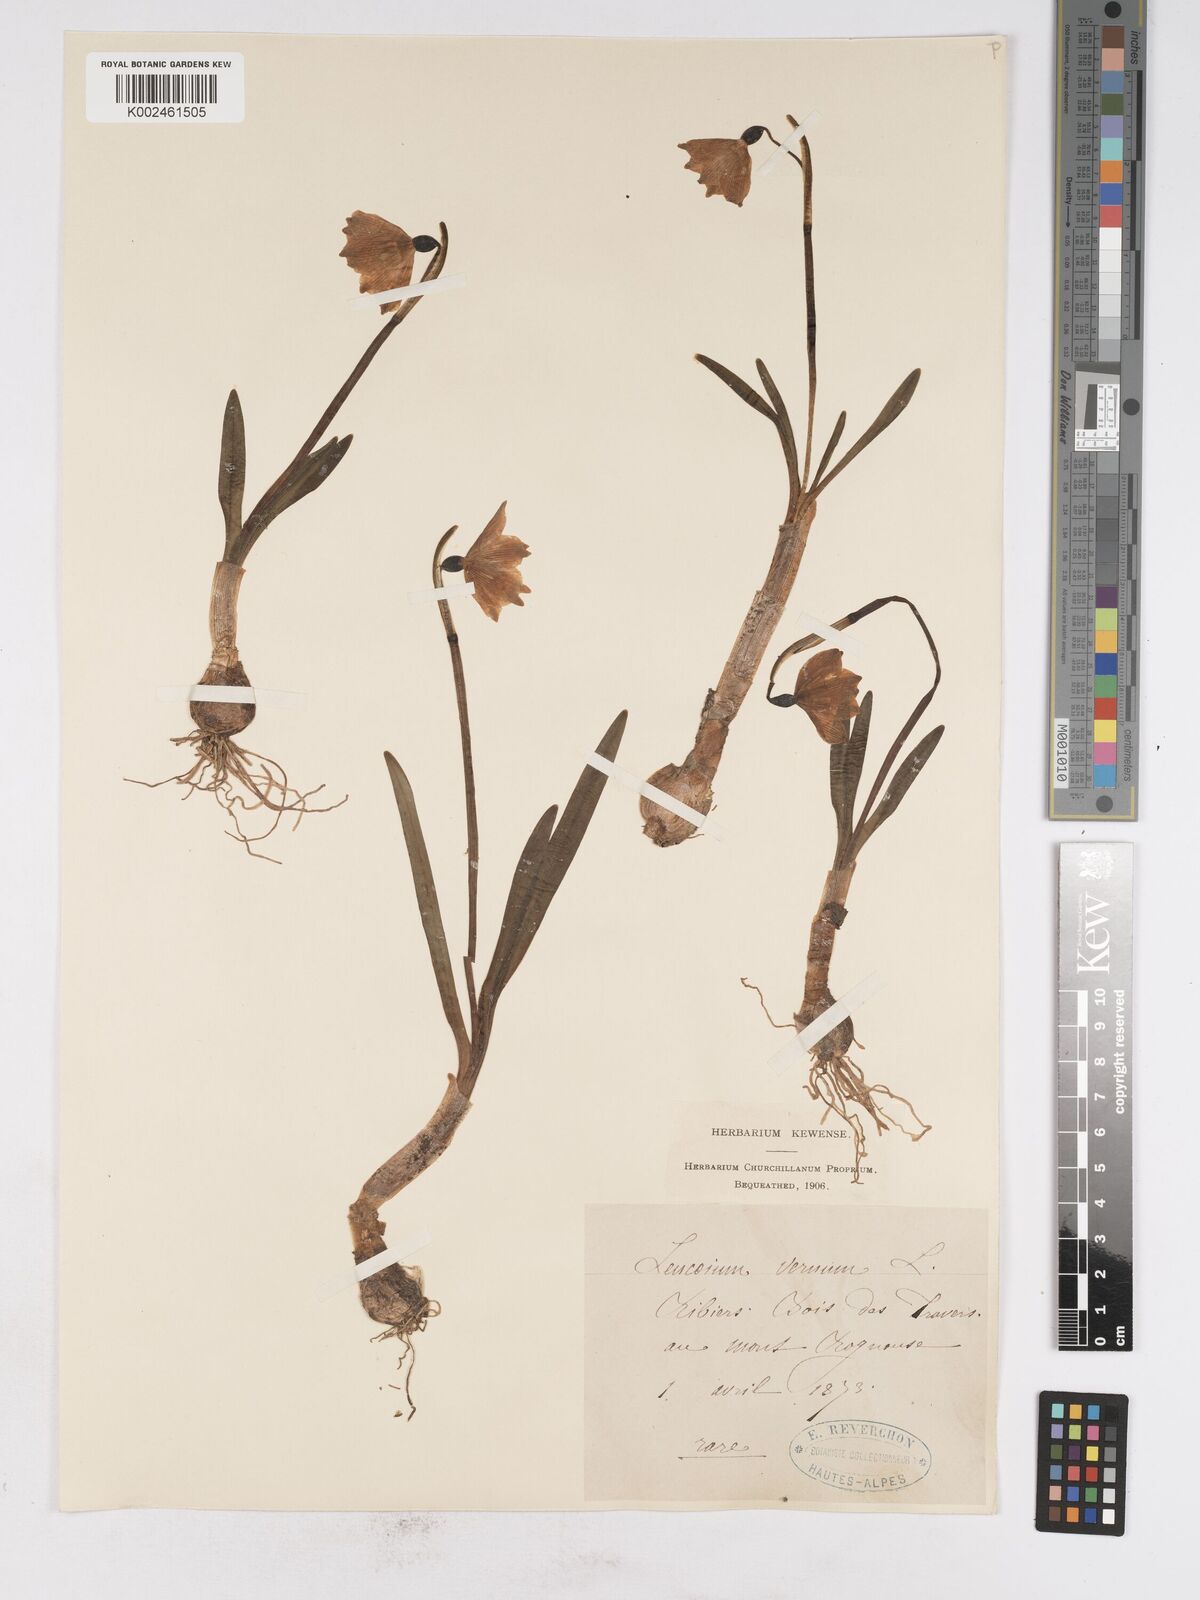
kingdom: Plantae
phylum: Tracheophyta
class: Liliopsida
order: Asparagales
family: Amaryllidaceae
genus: Leucojum
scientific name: Leucojum vernum
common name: Spring snowflake
